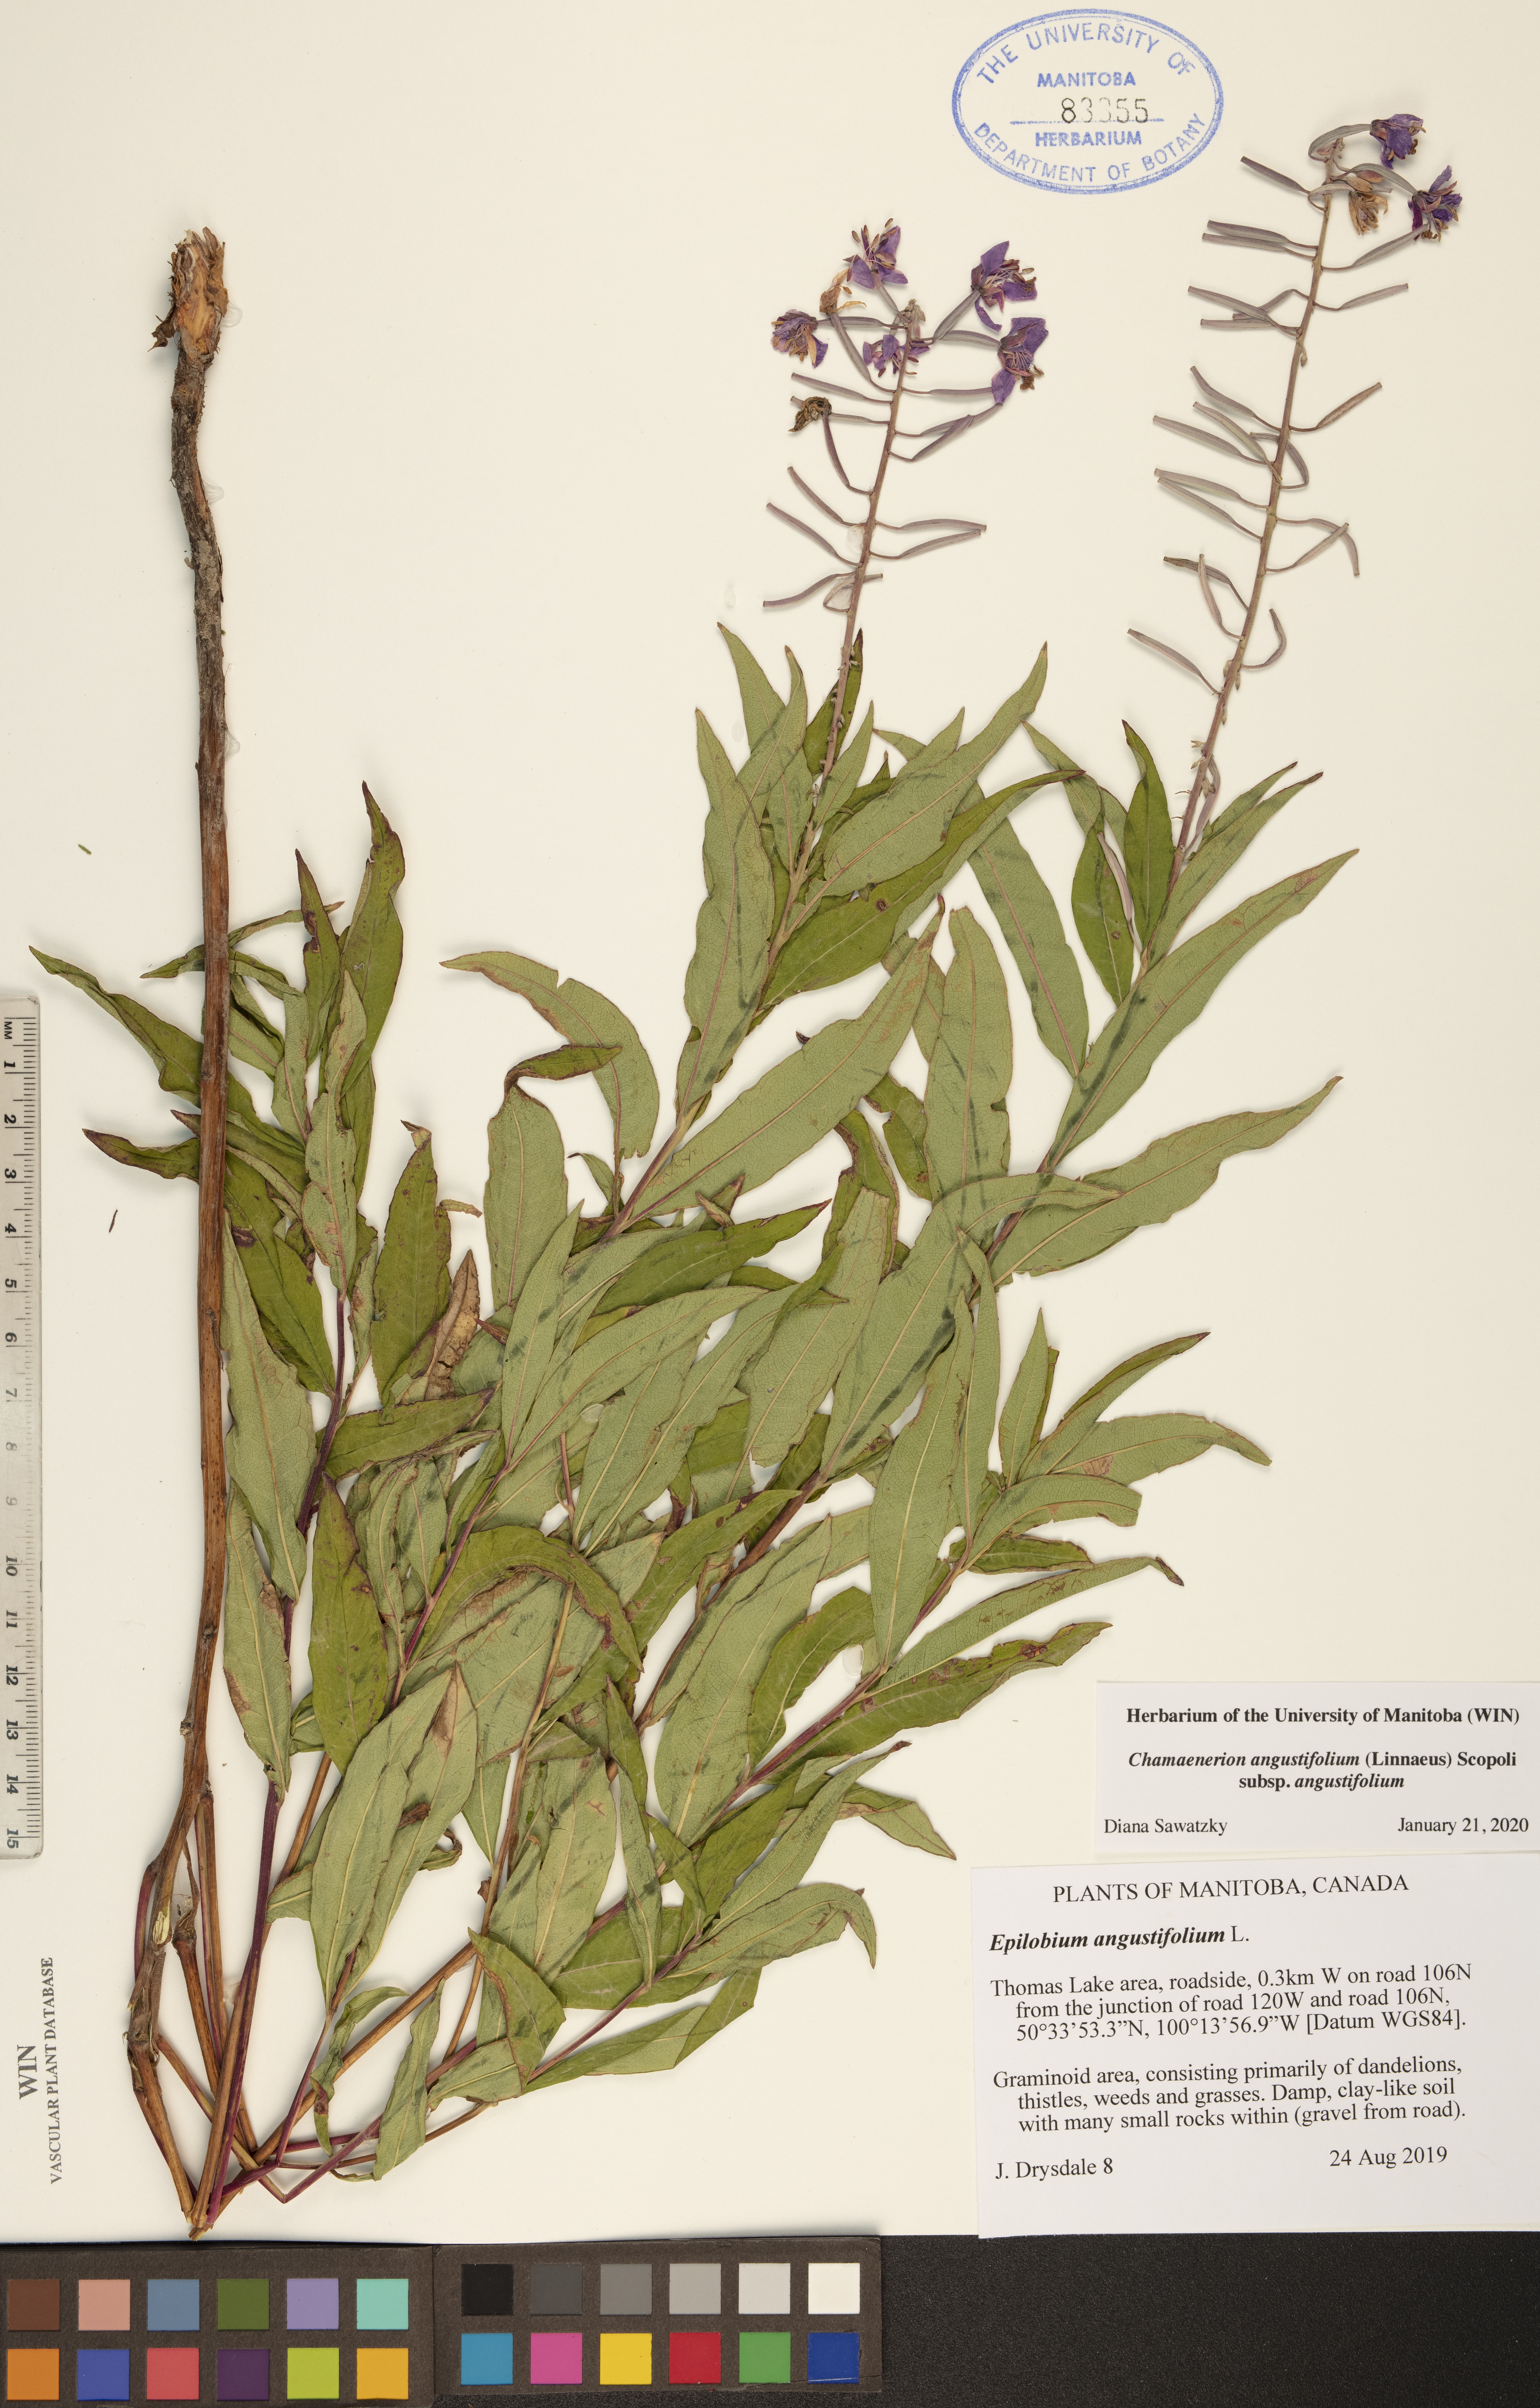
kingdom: Plantae
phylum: Tracheophyta
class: Magnoliopsida
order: Myrtales
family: Onagraceae
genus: Chamaenerion
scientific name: Chamaenerion angustifolium
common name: Fireweed
